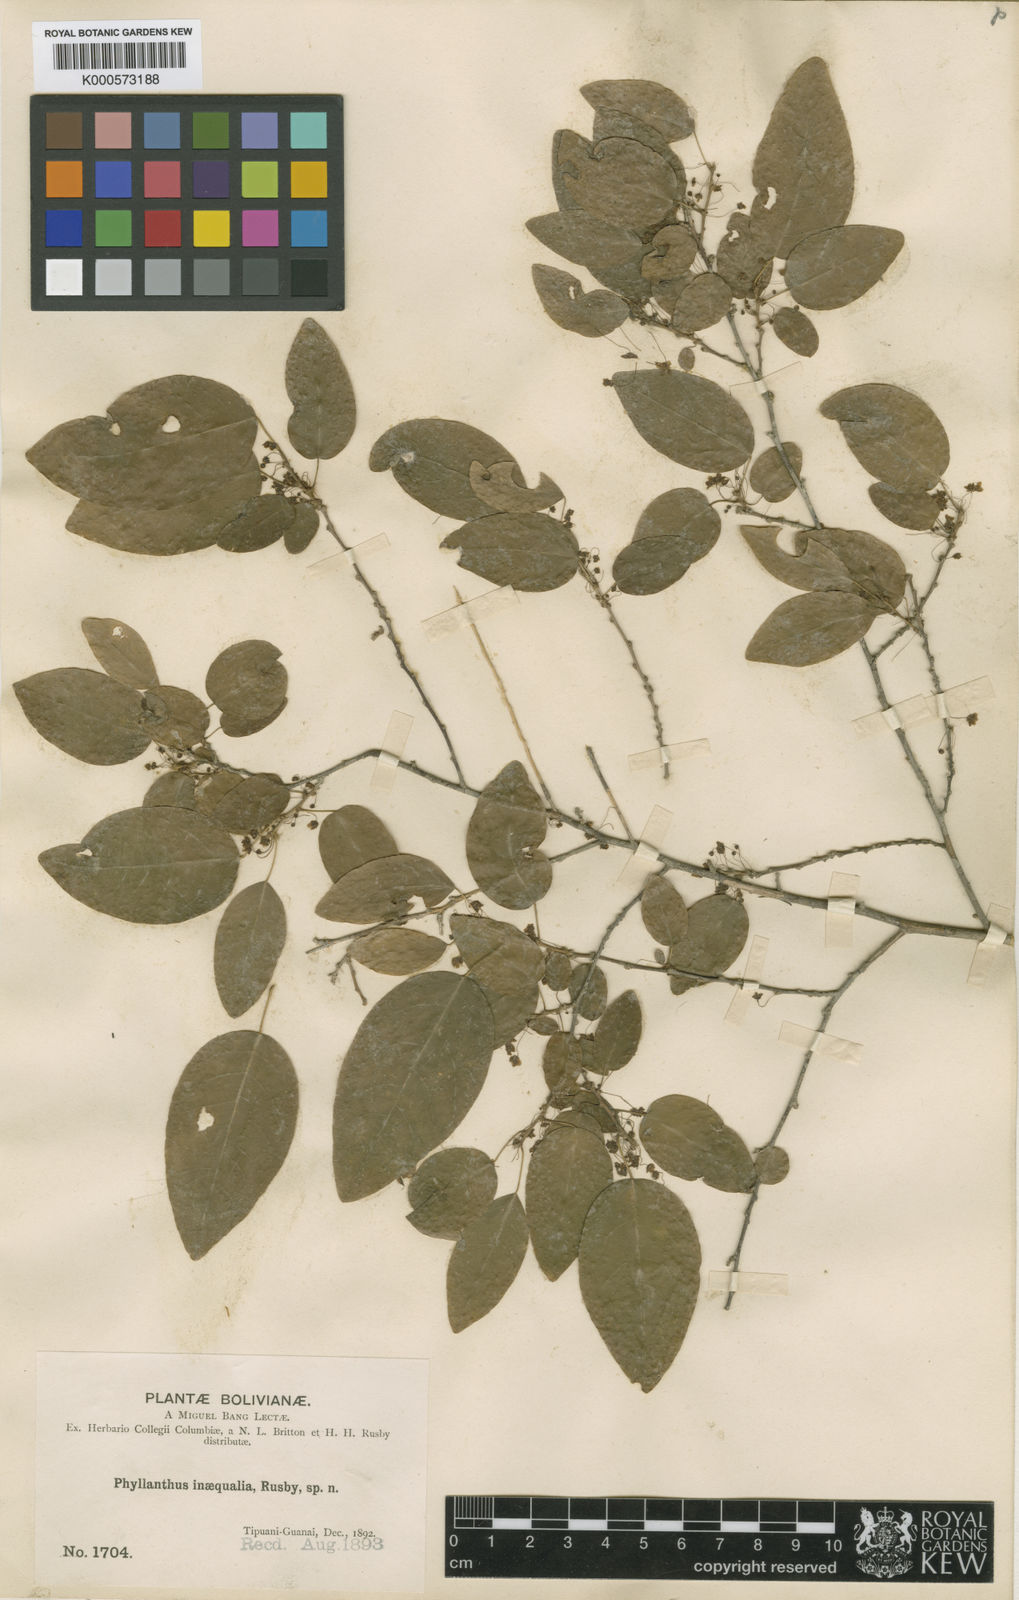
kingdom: Plantae
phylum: Tracheophyta
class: Magnoliopsida
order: Malpighiales
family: Phyllanthaceae
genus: Astrocasia
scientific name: Astrocasia jacobinensis
